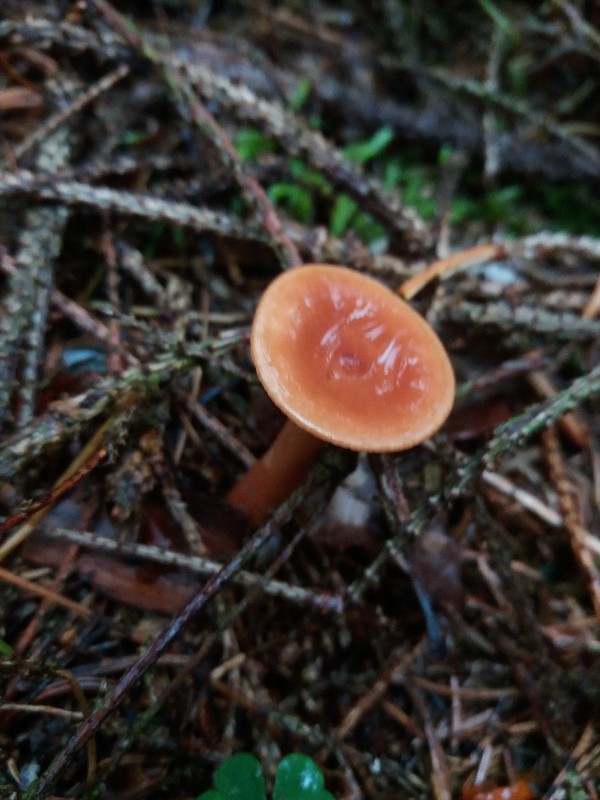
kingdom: Fungi
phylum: Basidiomycota
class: Agaricomycetes
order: Russulales
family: Russulaceae
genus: Lactarius
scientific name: Lactarius tabidus
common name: rynket mælkehat
